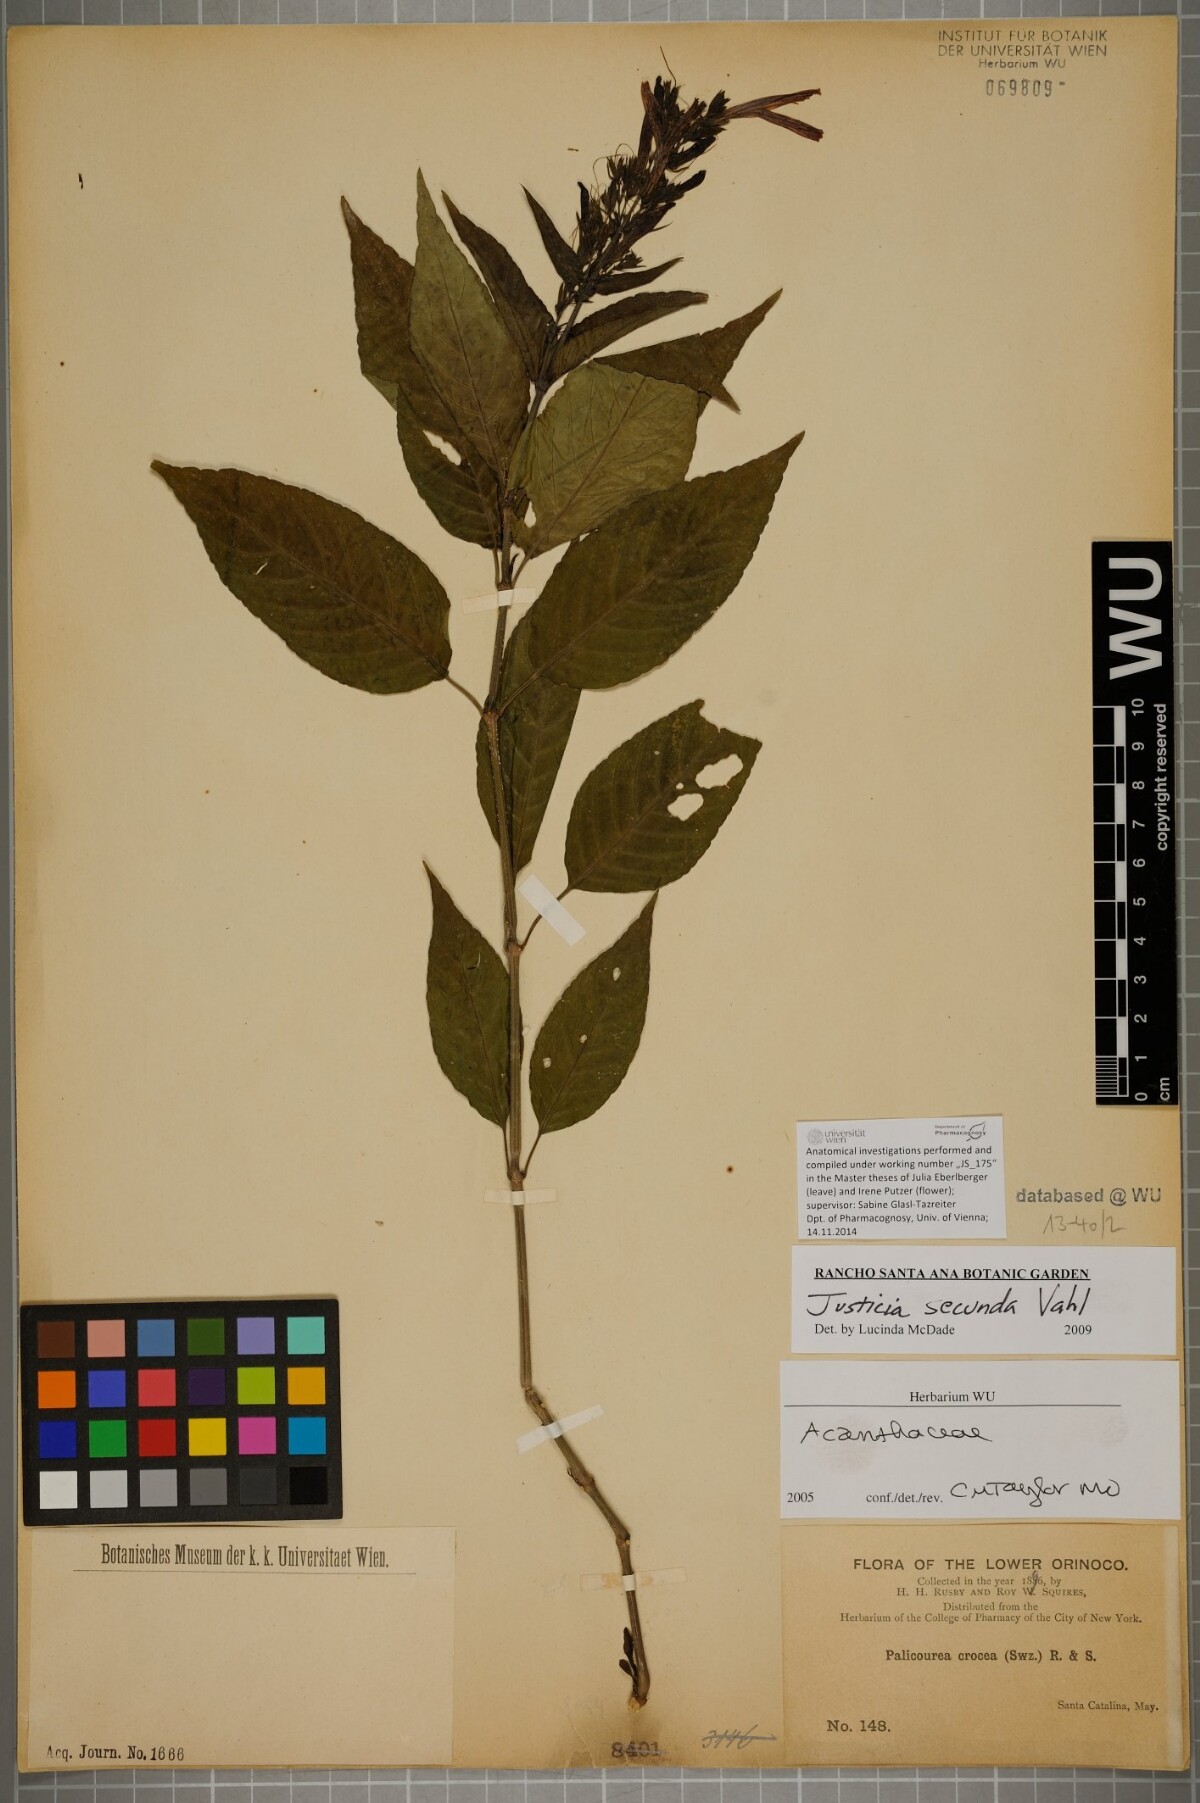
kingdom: Plantae
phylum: Tracheophyta
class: Magnoliopsida
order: Lamiales
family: Acanthaceae
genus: Justicia
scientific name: Justicia secunda
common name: Blood root
